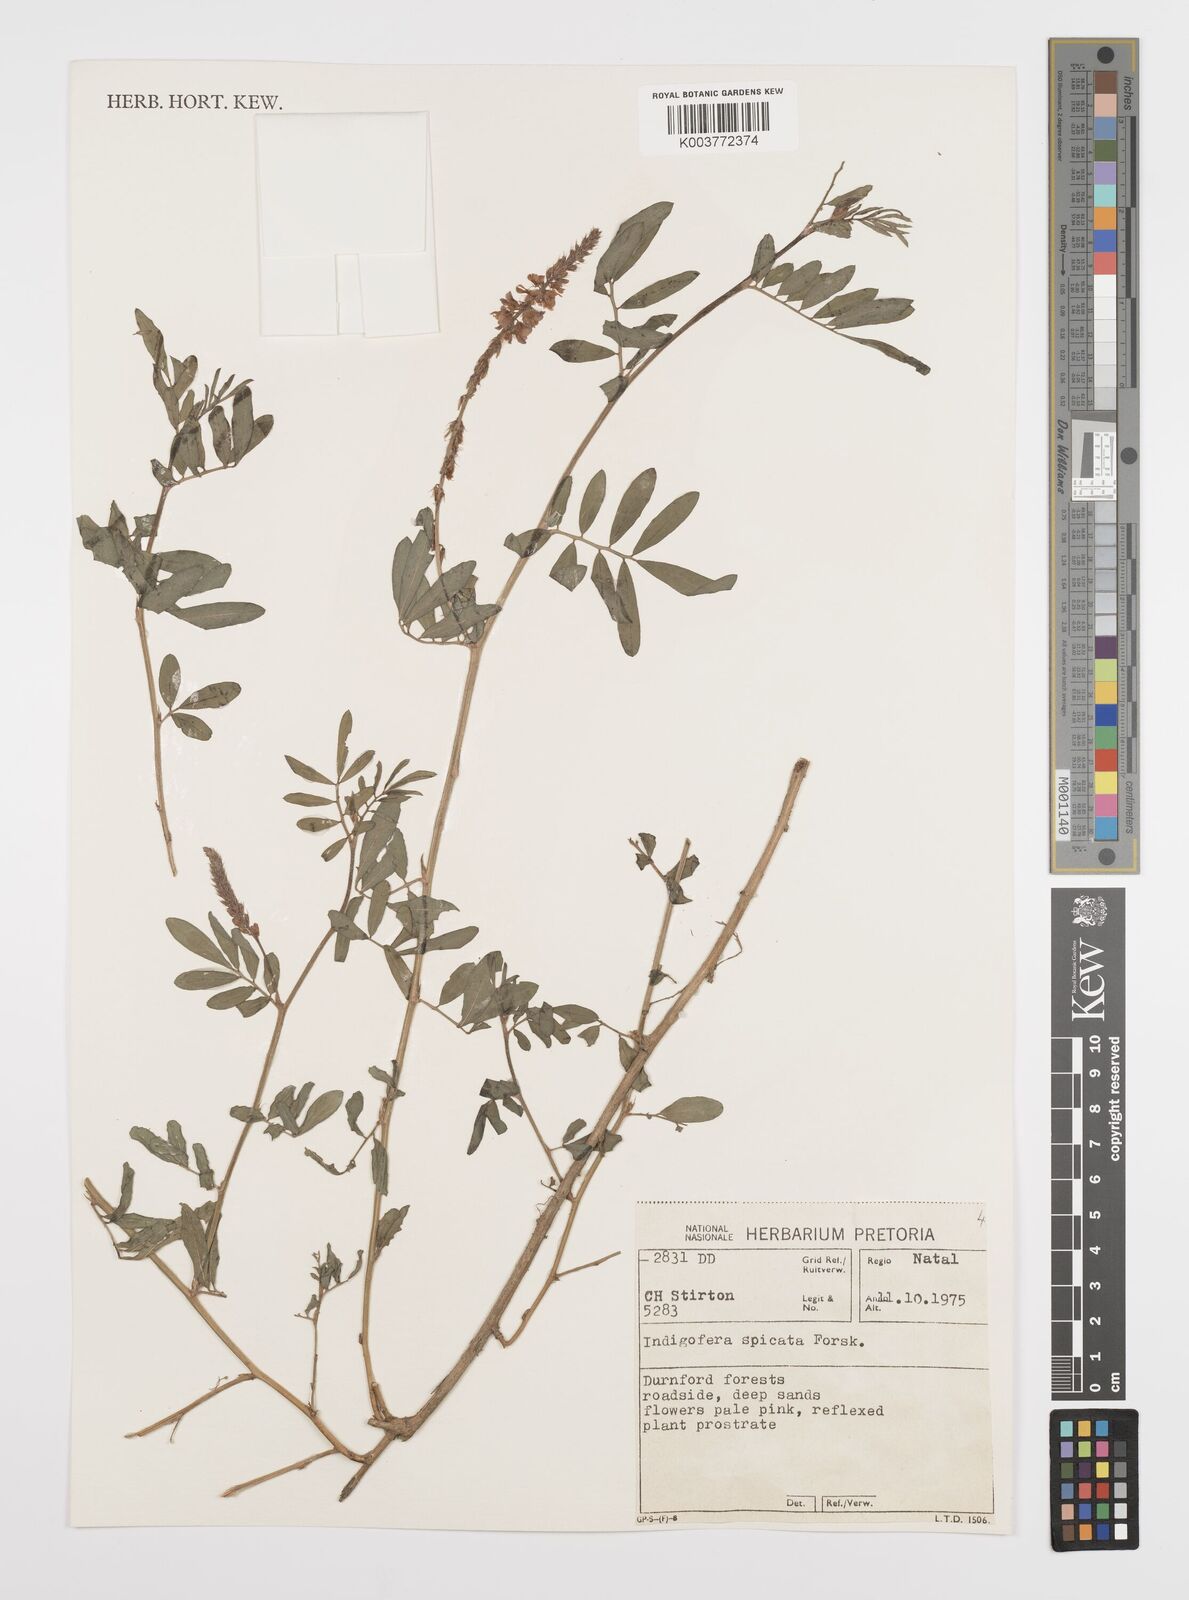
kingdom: Plantae
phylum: Tracheophyta
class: Magnoliopsida
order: Fabales
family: Fabaceae
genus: Indigofera
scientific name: Indigofera hendecaphylla
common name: Trailing indigo
